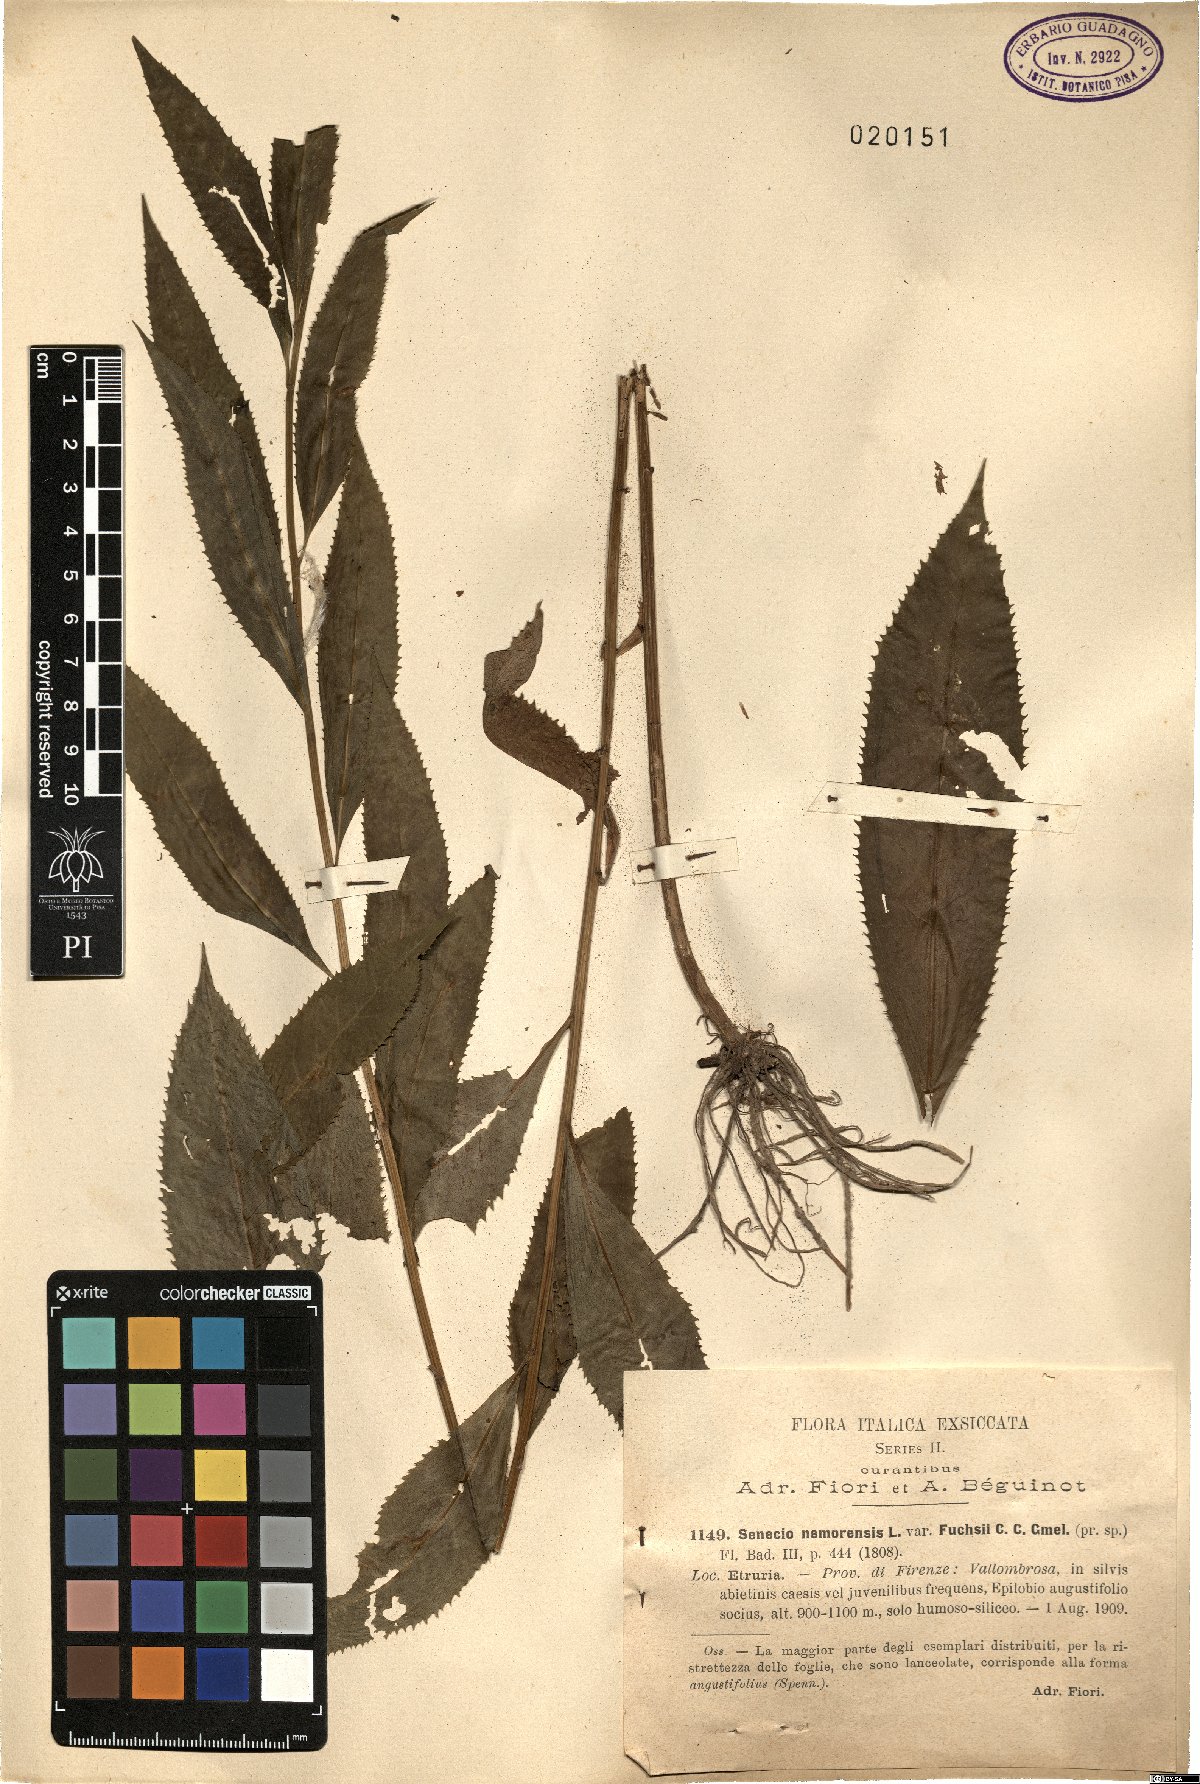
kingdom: Plantae
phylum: Tracheophyta
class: Magnoliopsida
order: Asterales
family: Asteraceae
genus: Senecio
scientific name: Senecio ovatus
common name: Wood ragwort
